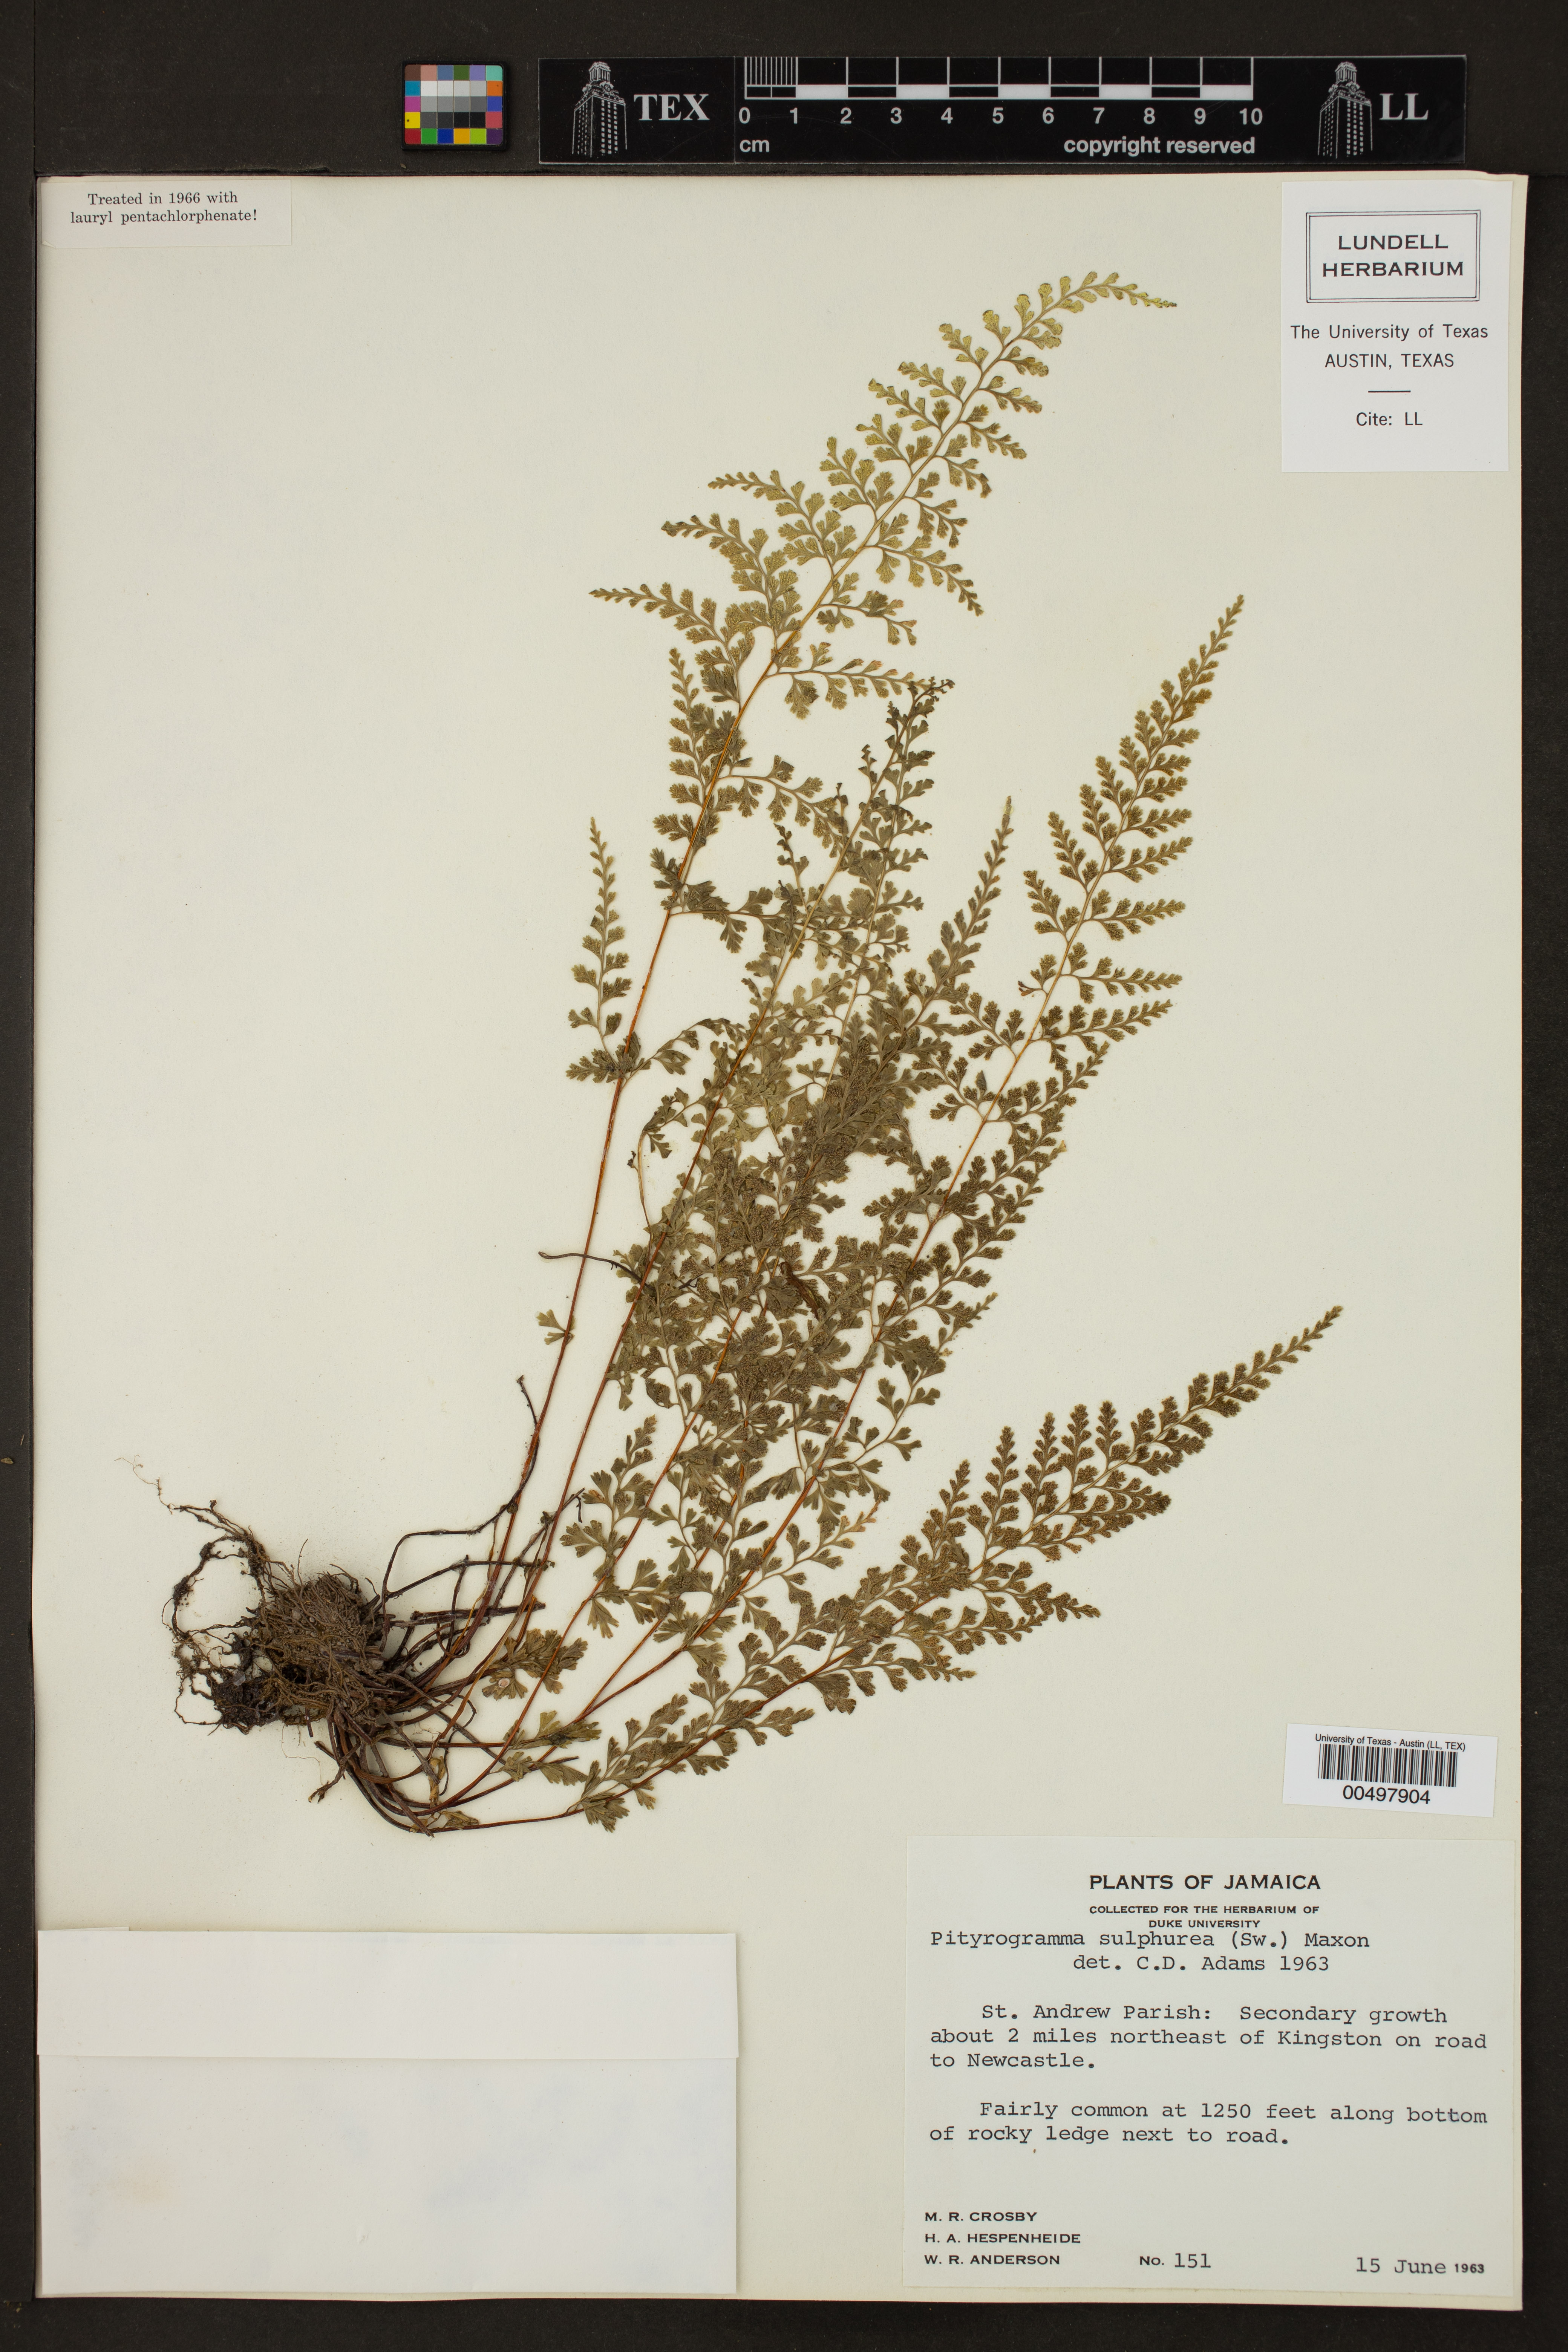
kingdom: Plantae
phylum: Tracheophyta
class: Polypodiopsida
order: Polypodiales
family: Pteridaceae
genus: Pityrogramma
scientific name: Pityrogramma sulphurea
